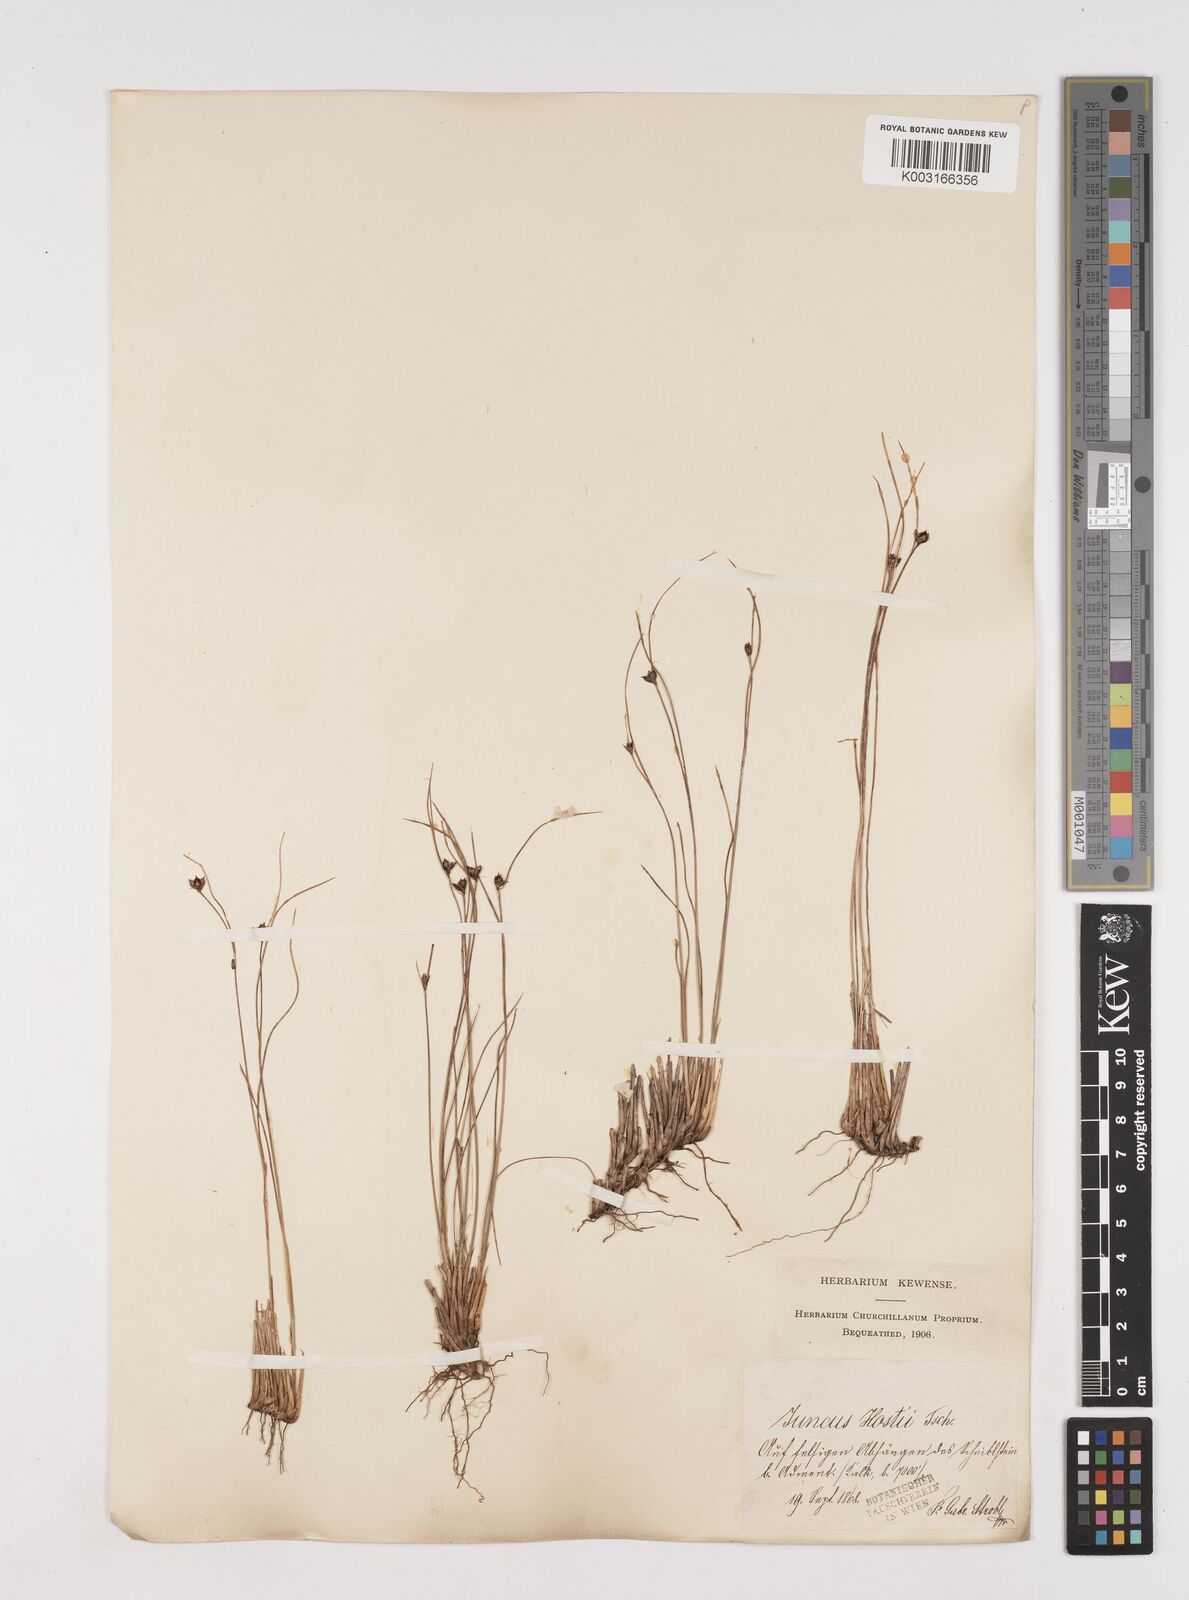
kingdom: Plantae
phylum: Tracheophyta
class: Liliopsida
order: Poales
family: Juncaceae
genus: Oreojuncus
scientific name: Oreojuncus trifidus
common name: Highland rush
